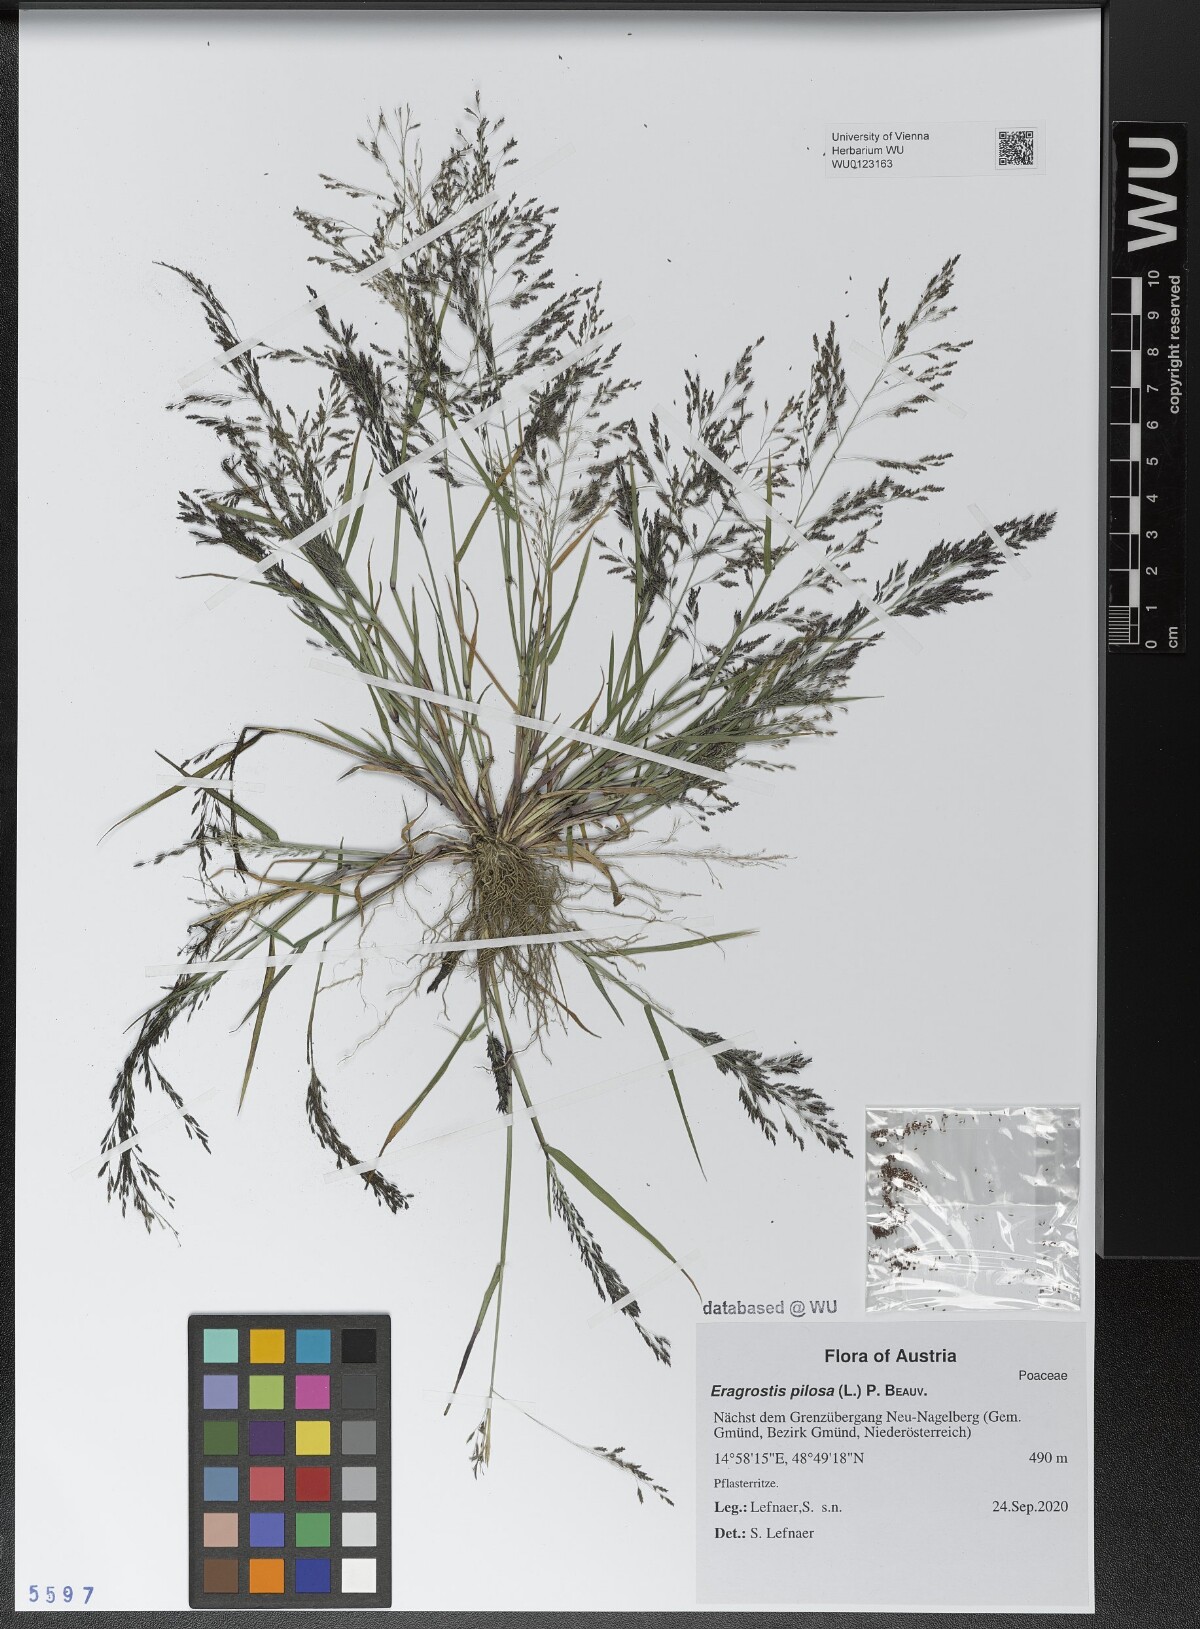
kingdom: Plantae
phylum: Tracheophyta
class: Liliopsida
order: Poales
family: Poaceae
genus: Eragrostis
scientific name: Eragrostis pilosa
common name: Indian lovegrass
